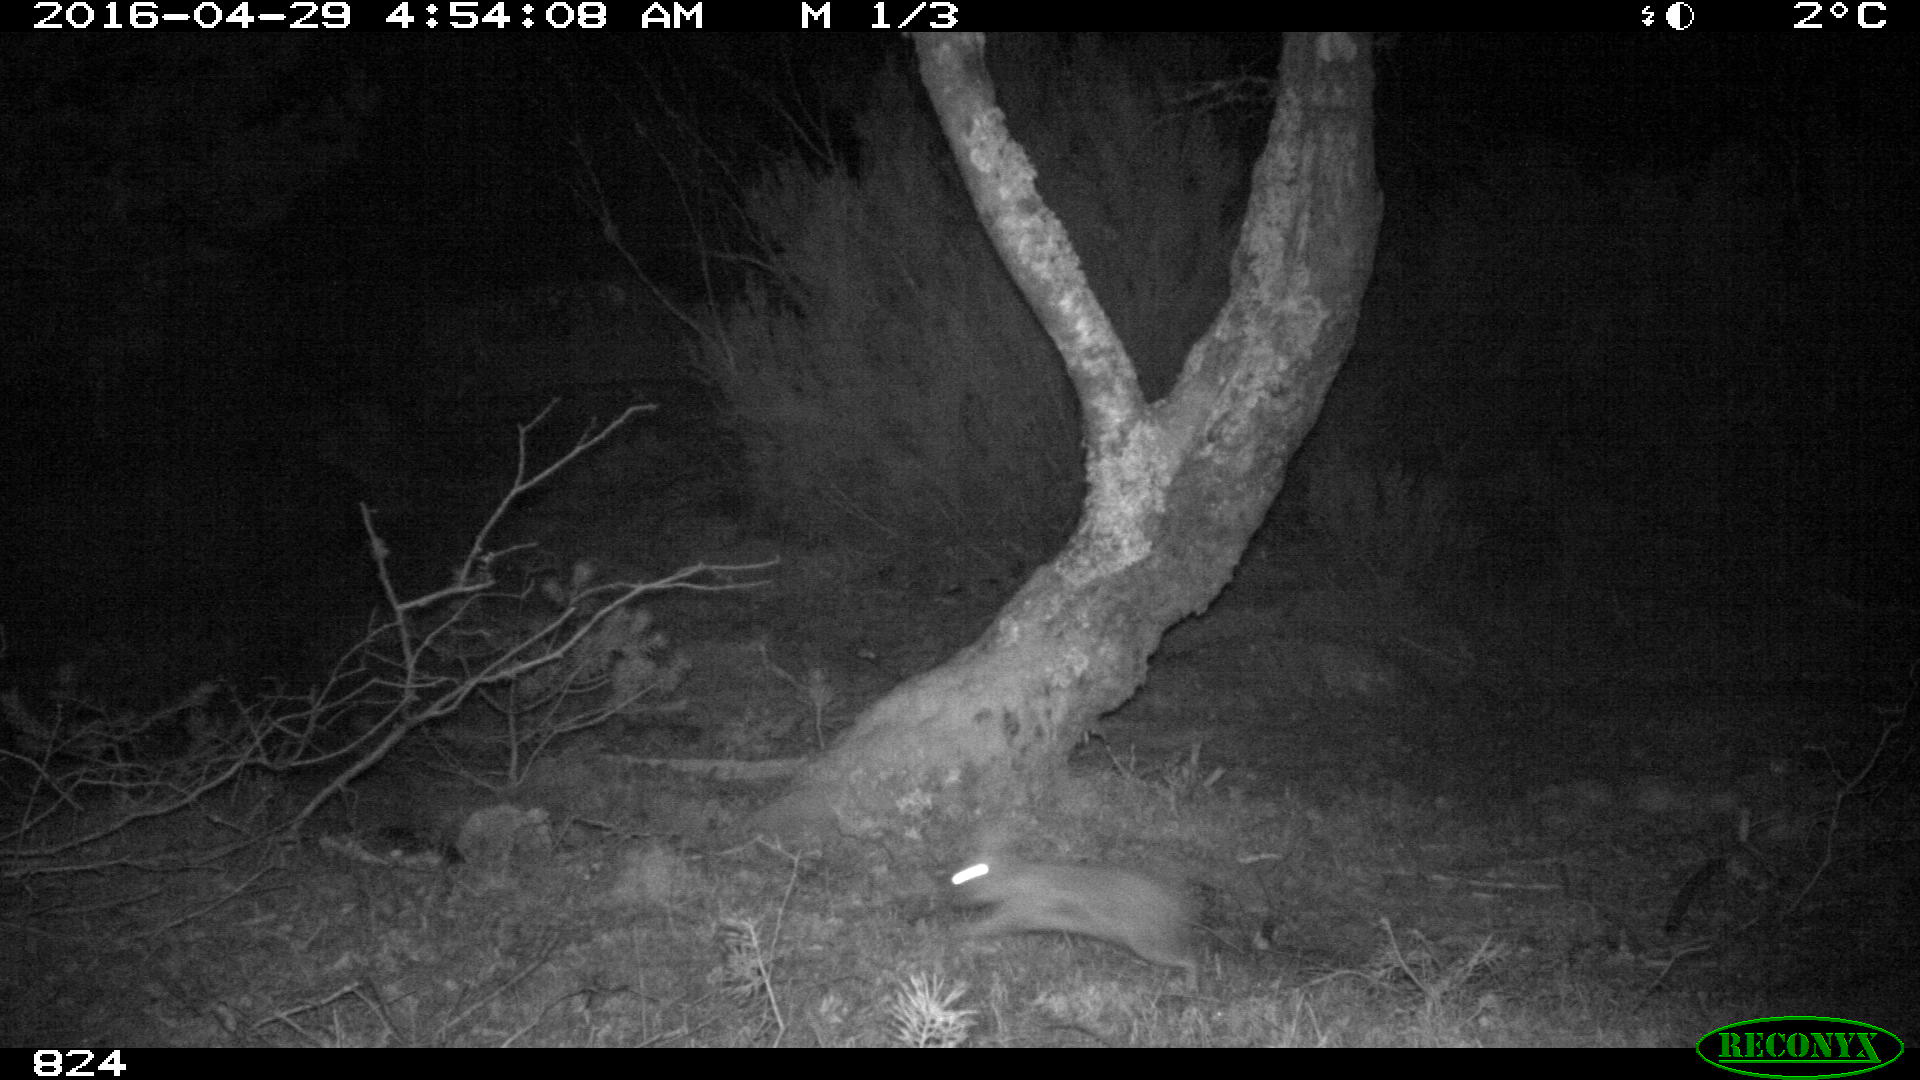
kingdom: Animalia
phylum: Chordata
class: Mammalia
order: Lagomorpha
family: Leporidae
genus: Oryctolagus
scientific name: Oryctolagus cuniculus
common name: European rabbit
